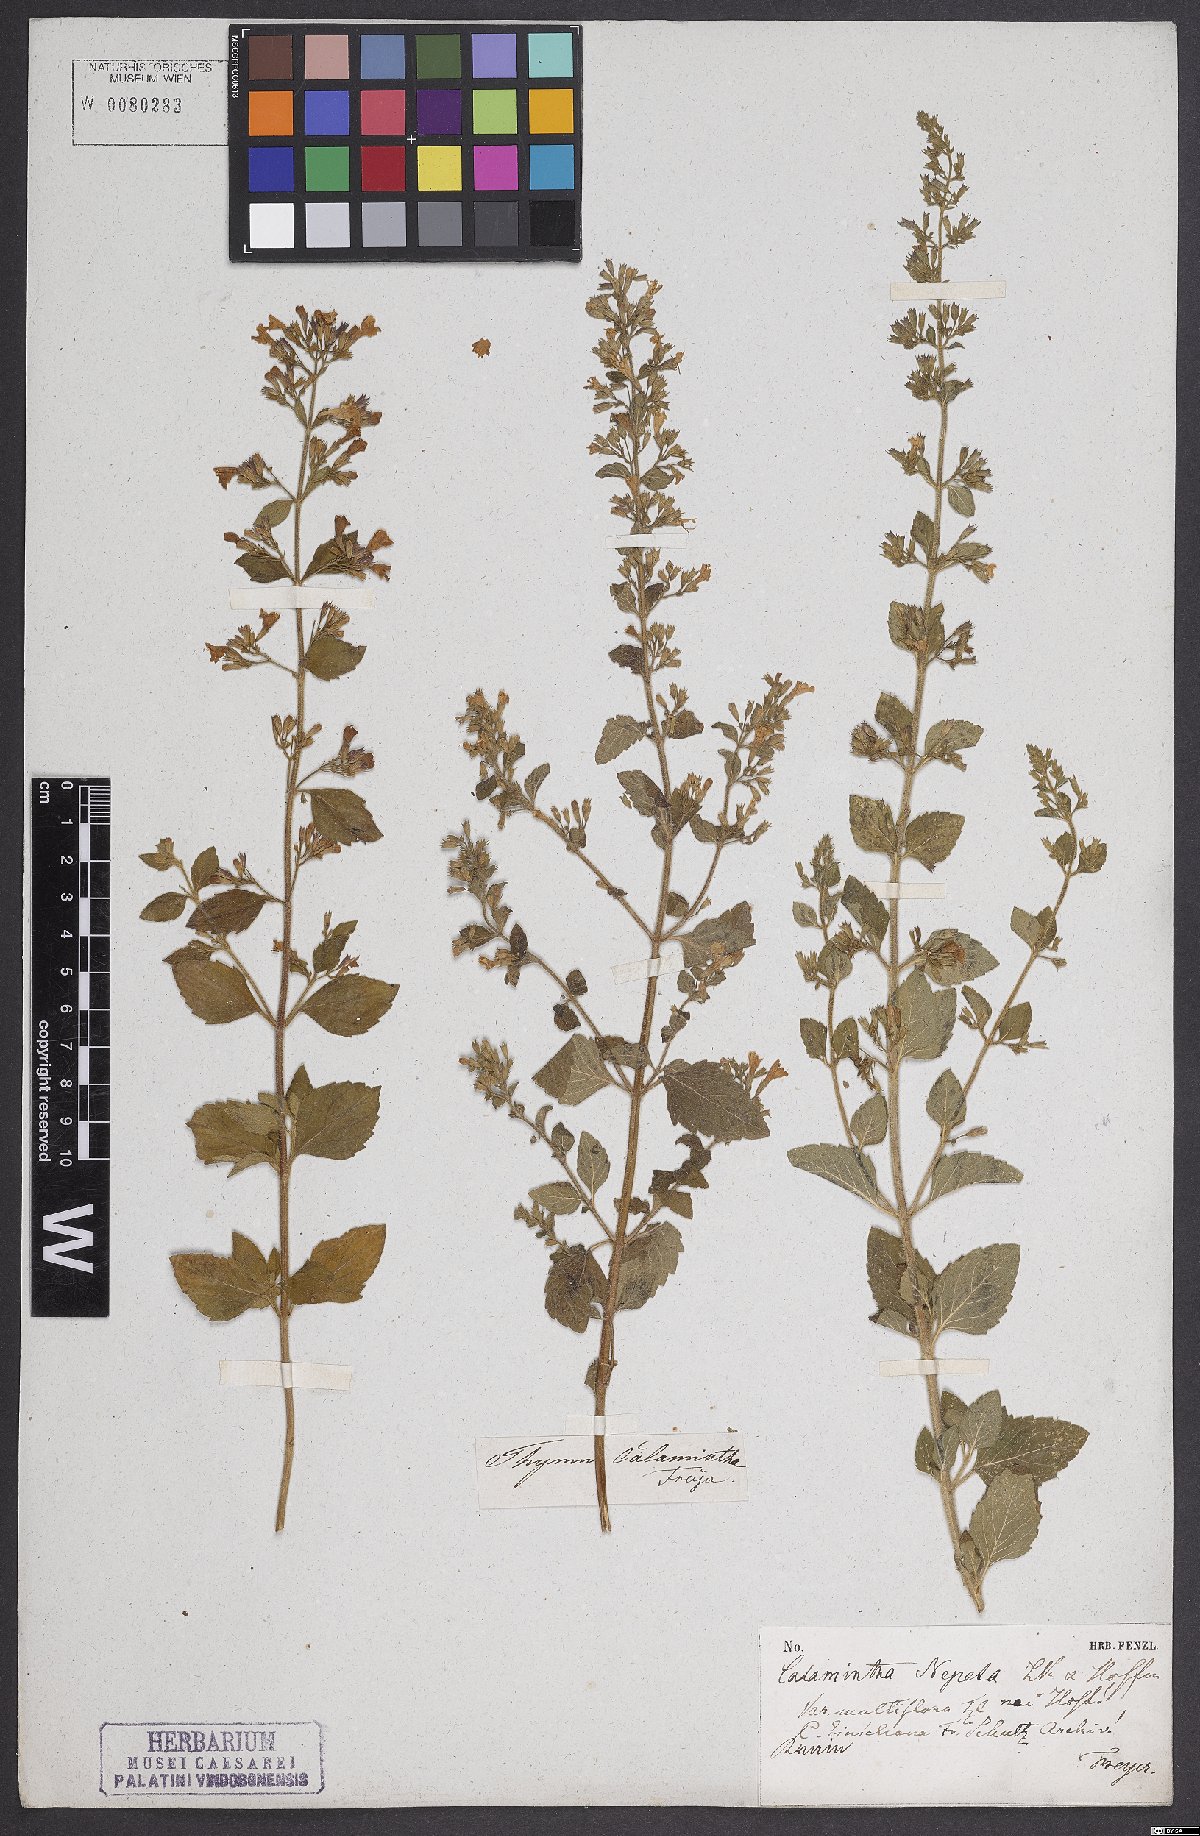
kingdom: Plantae
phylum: Tracheophyta
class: Magnoliopsida
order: Lamiales
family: Lamiaceae
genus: Clinopodium
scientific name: Clinopodium nepeta
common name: Lesser calamint
